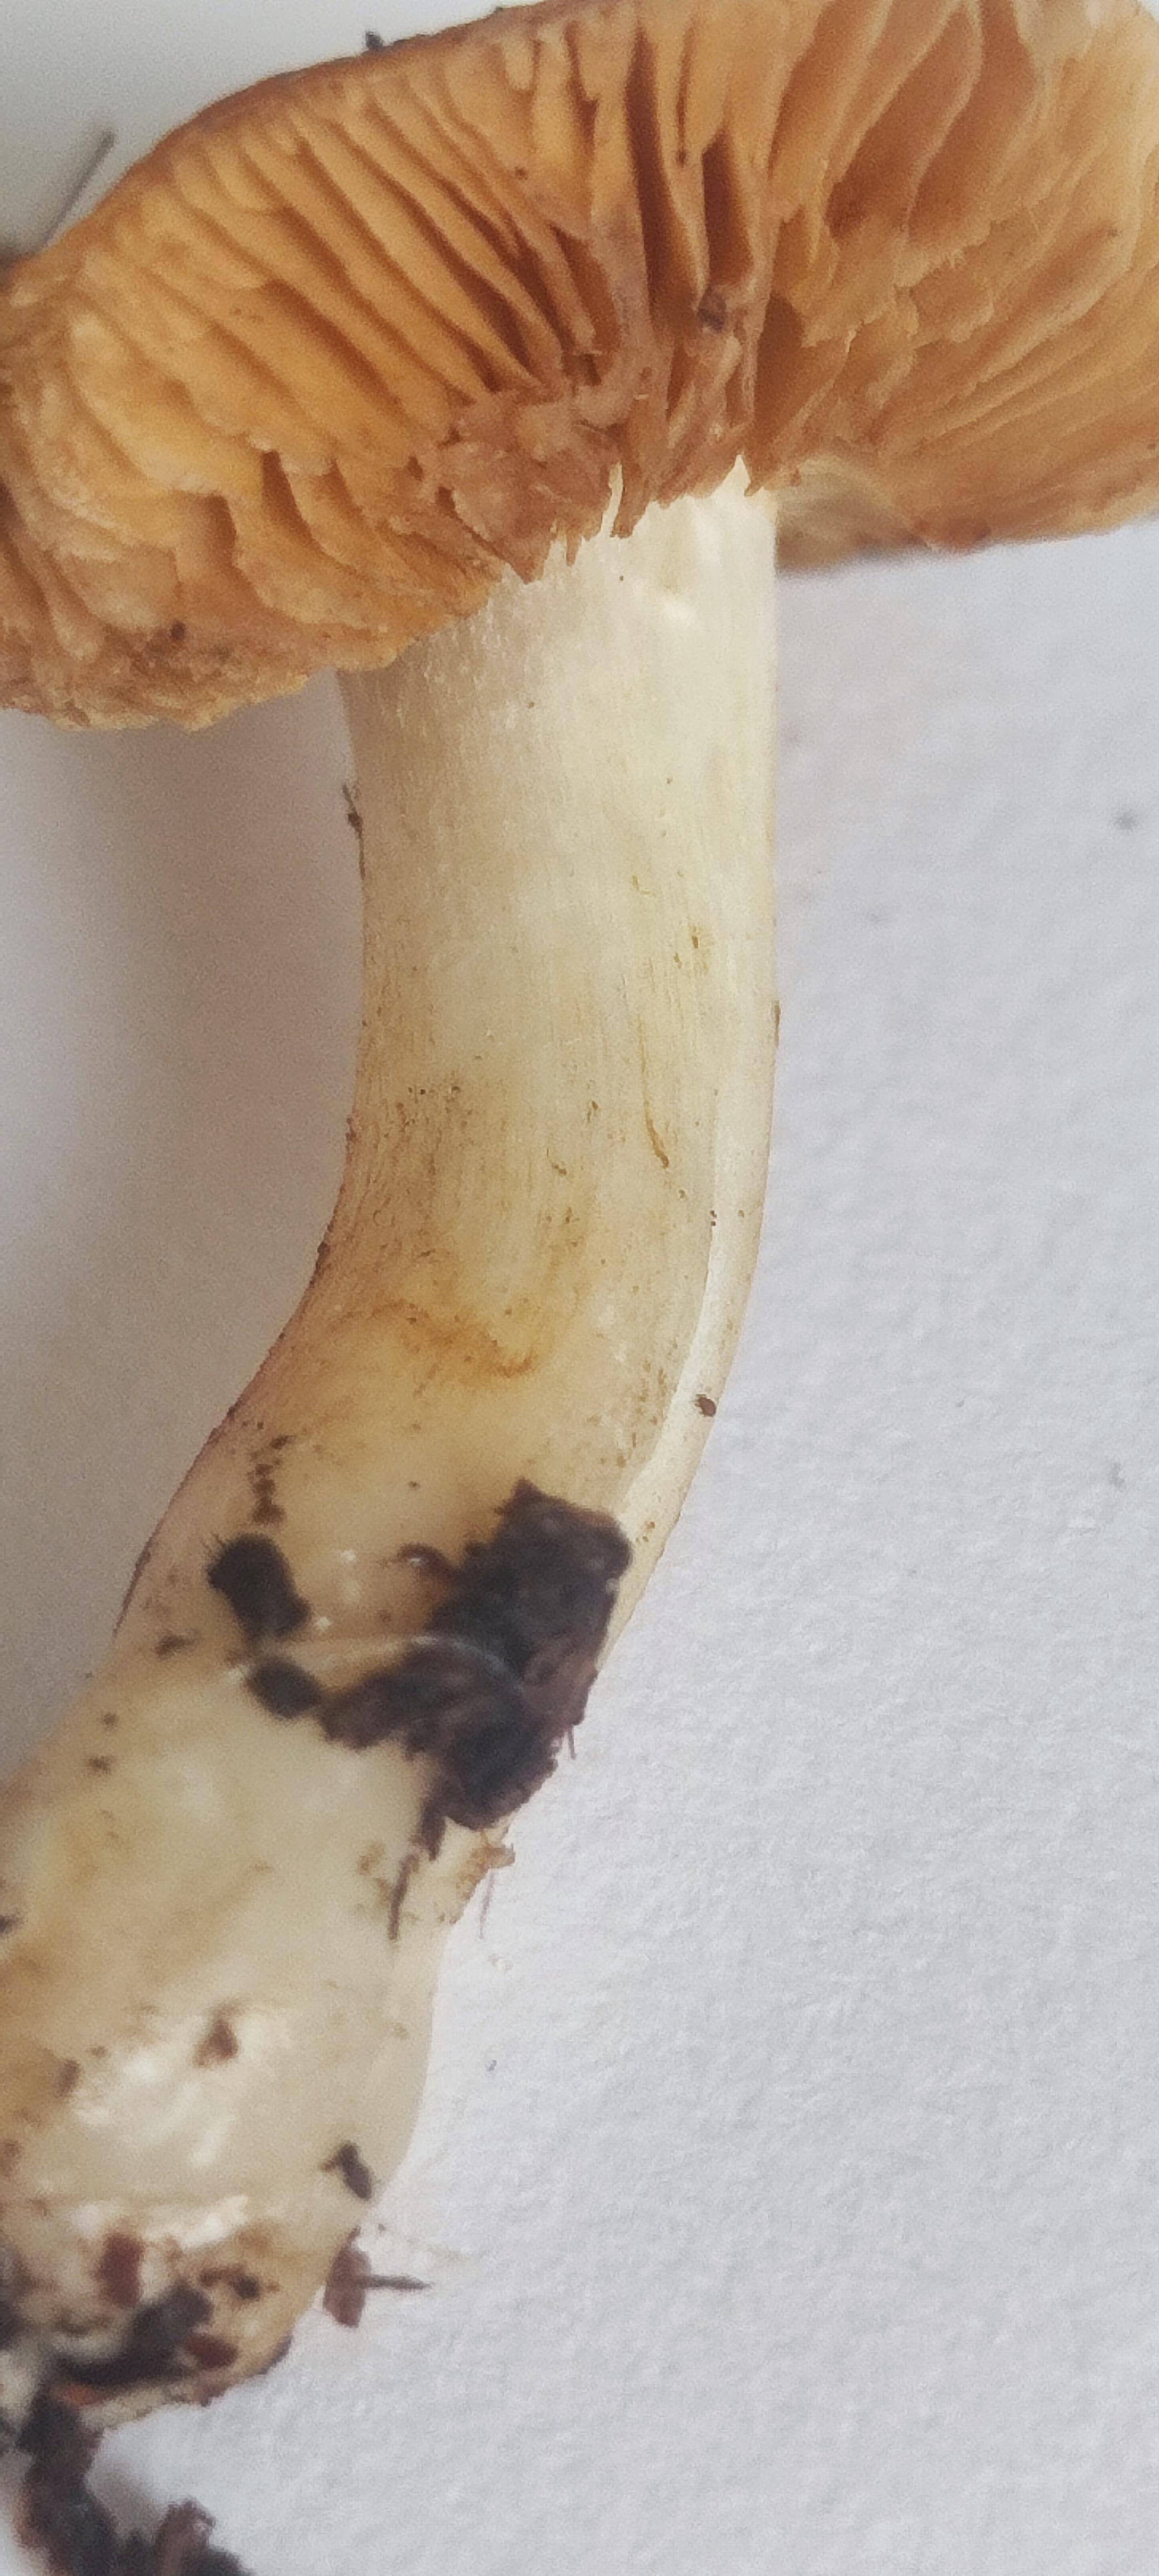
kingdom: Fungi
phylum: Basidiomycota
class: Agaricomycetes
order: Agaricales
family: Cortinariaceae
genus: Thaxterogaster
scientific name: Thaxterogaster
